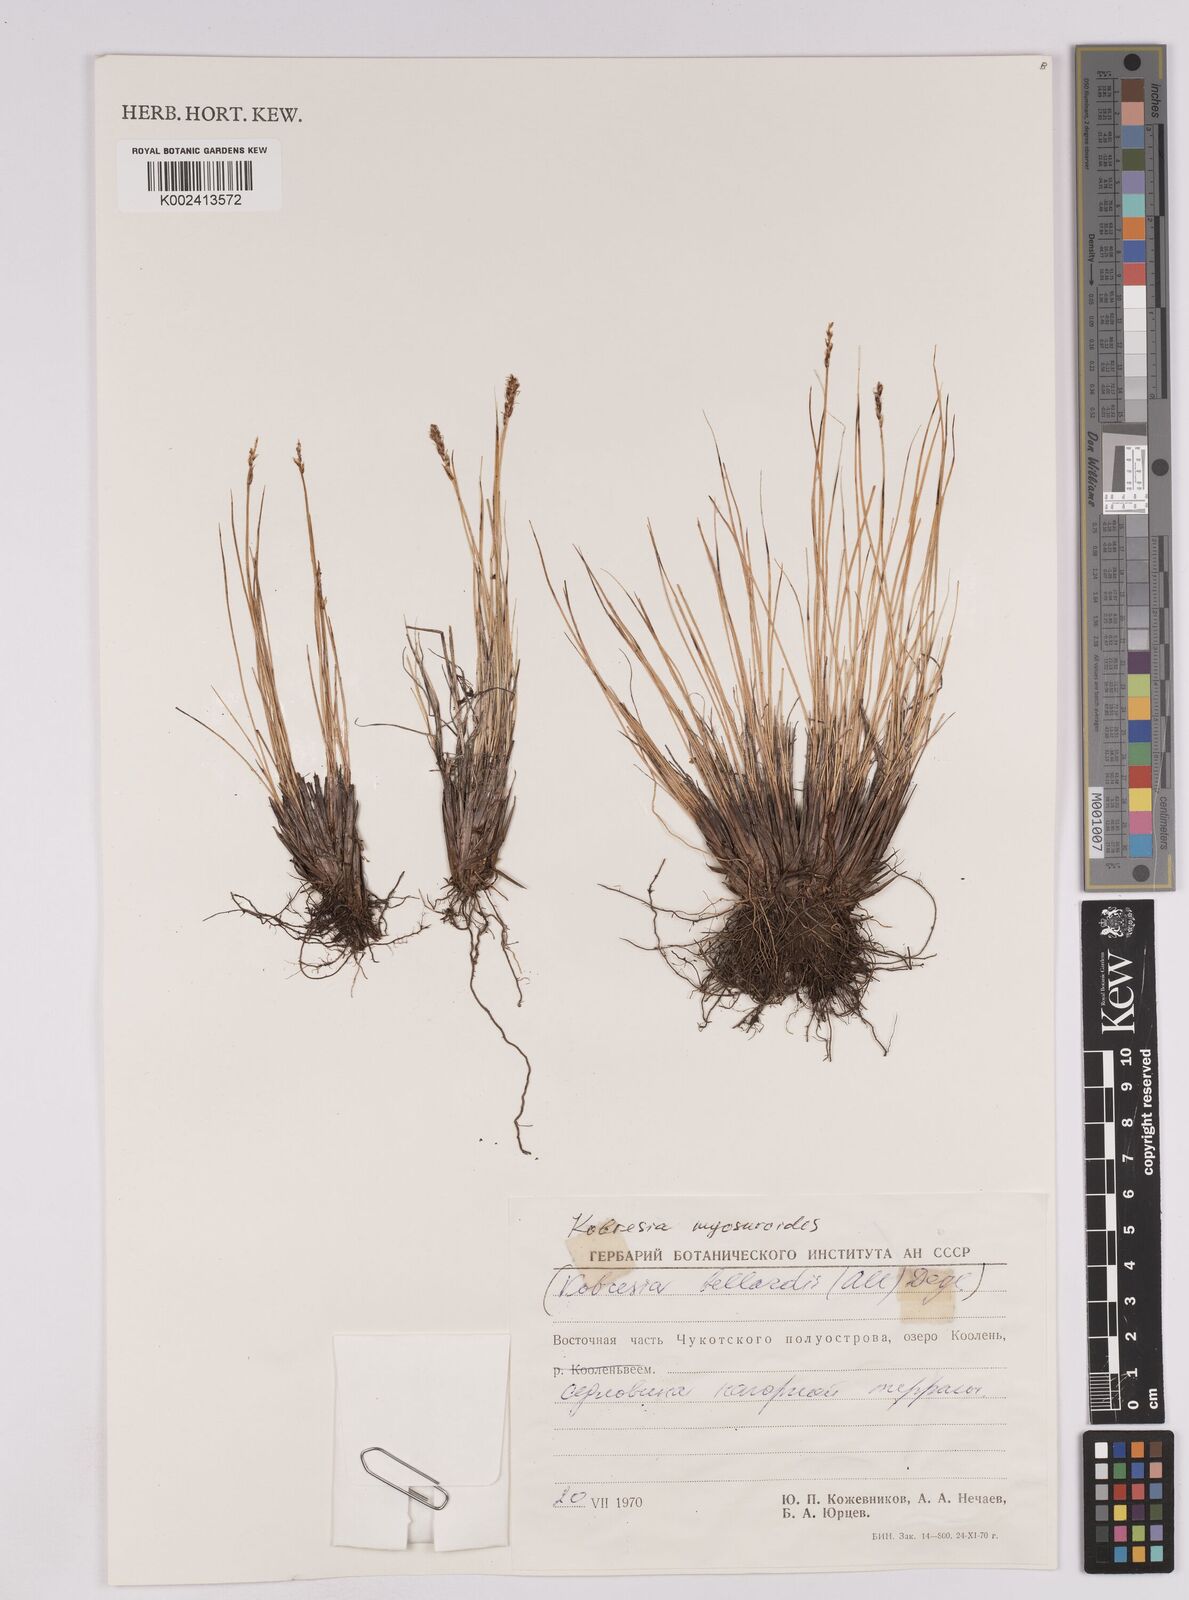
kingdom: Plantae
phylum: Tracheophyta
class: Liliopsida
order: Poales
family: Cyperaceae
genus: Carex
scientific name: Carex myosuroides
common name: Bellard's bog sedge
